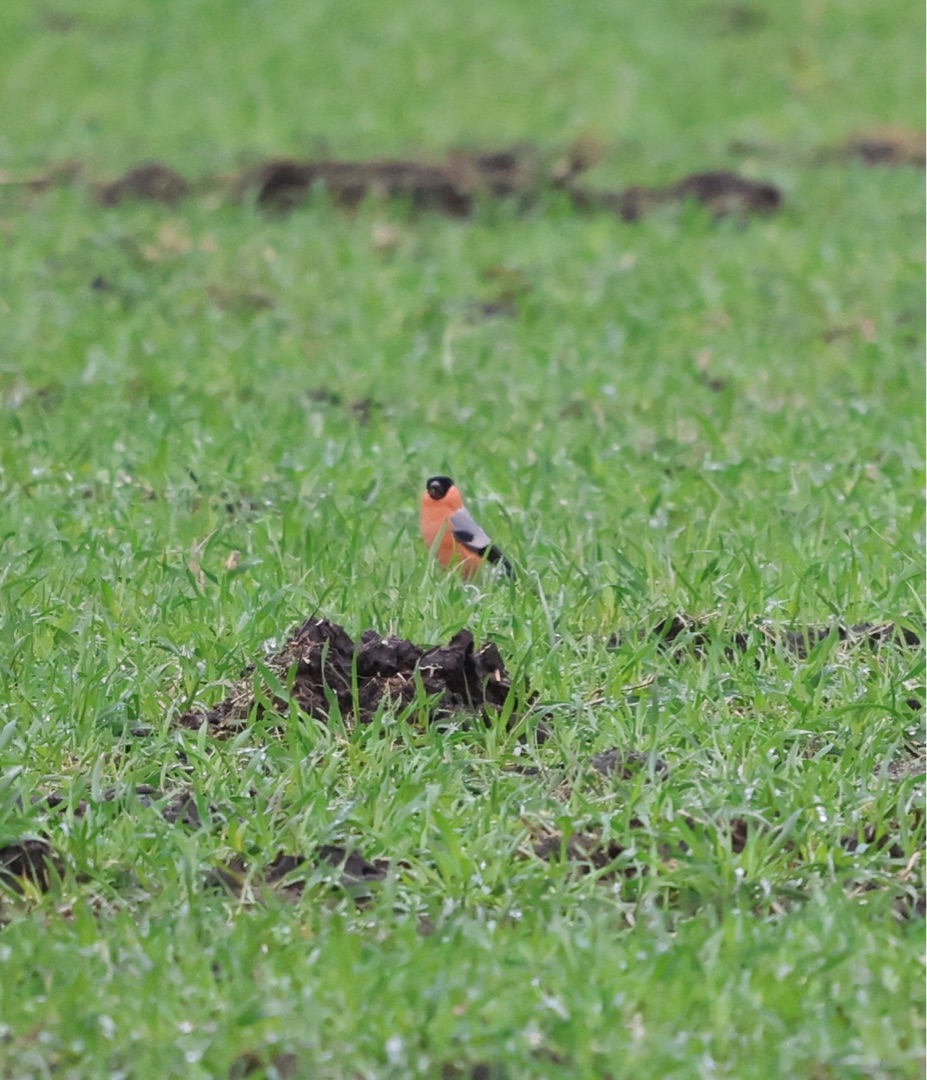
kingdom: Animalia
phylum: Chordata
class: Aves
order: Passeriformes
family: Fringillidae
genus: Pyrrhula
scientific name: Pyrrhula pyrrhula
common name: Dompap
